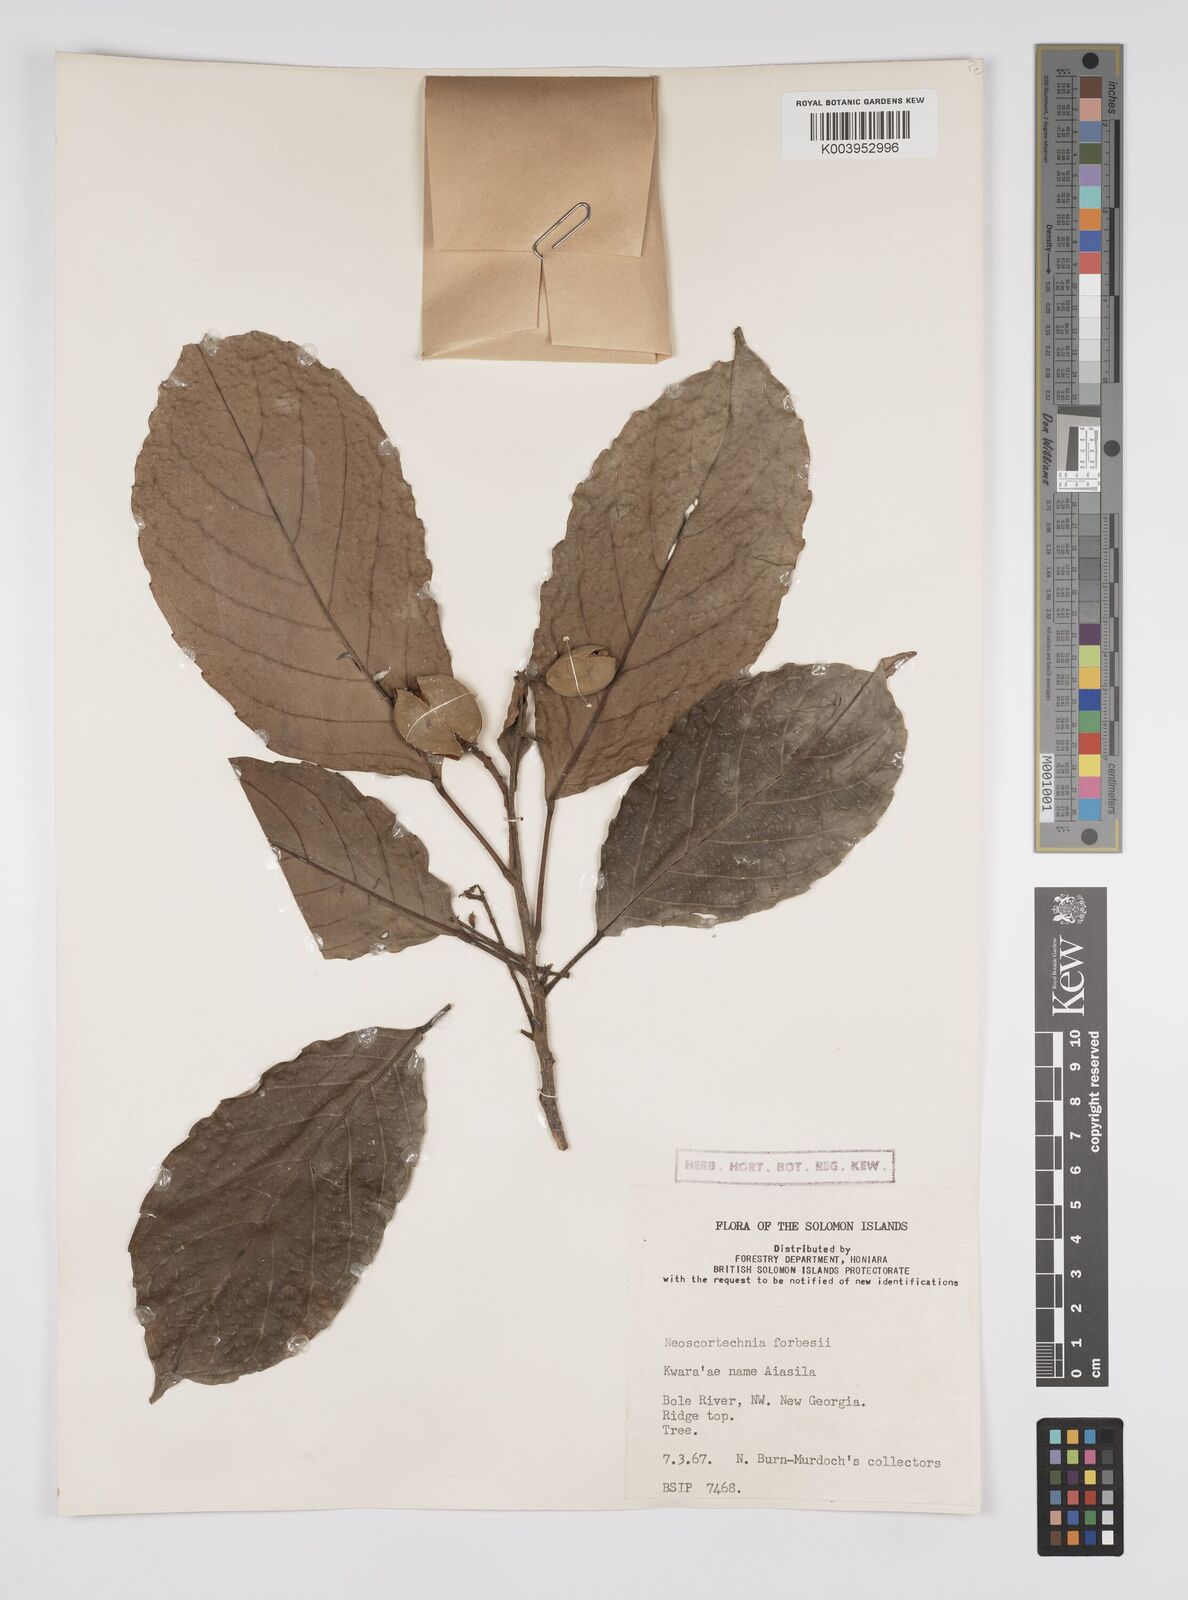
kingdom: Plantae
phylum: Tracheophyta
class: Magnoliopsida
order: Malpighiales
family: Euphorbiaceae
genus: Neoscortechinia
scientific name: Neoscortechinia forbesii
